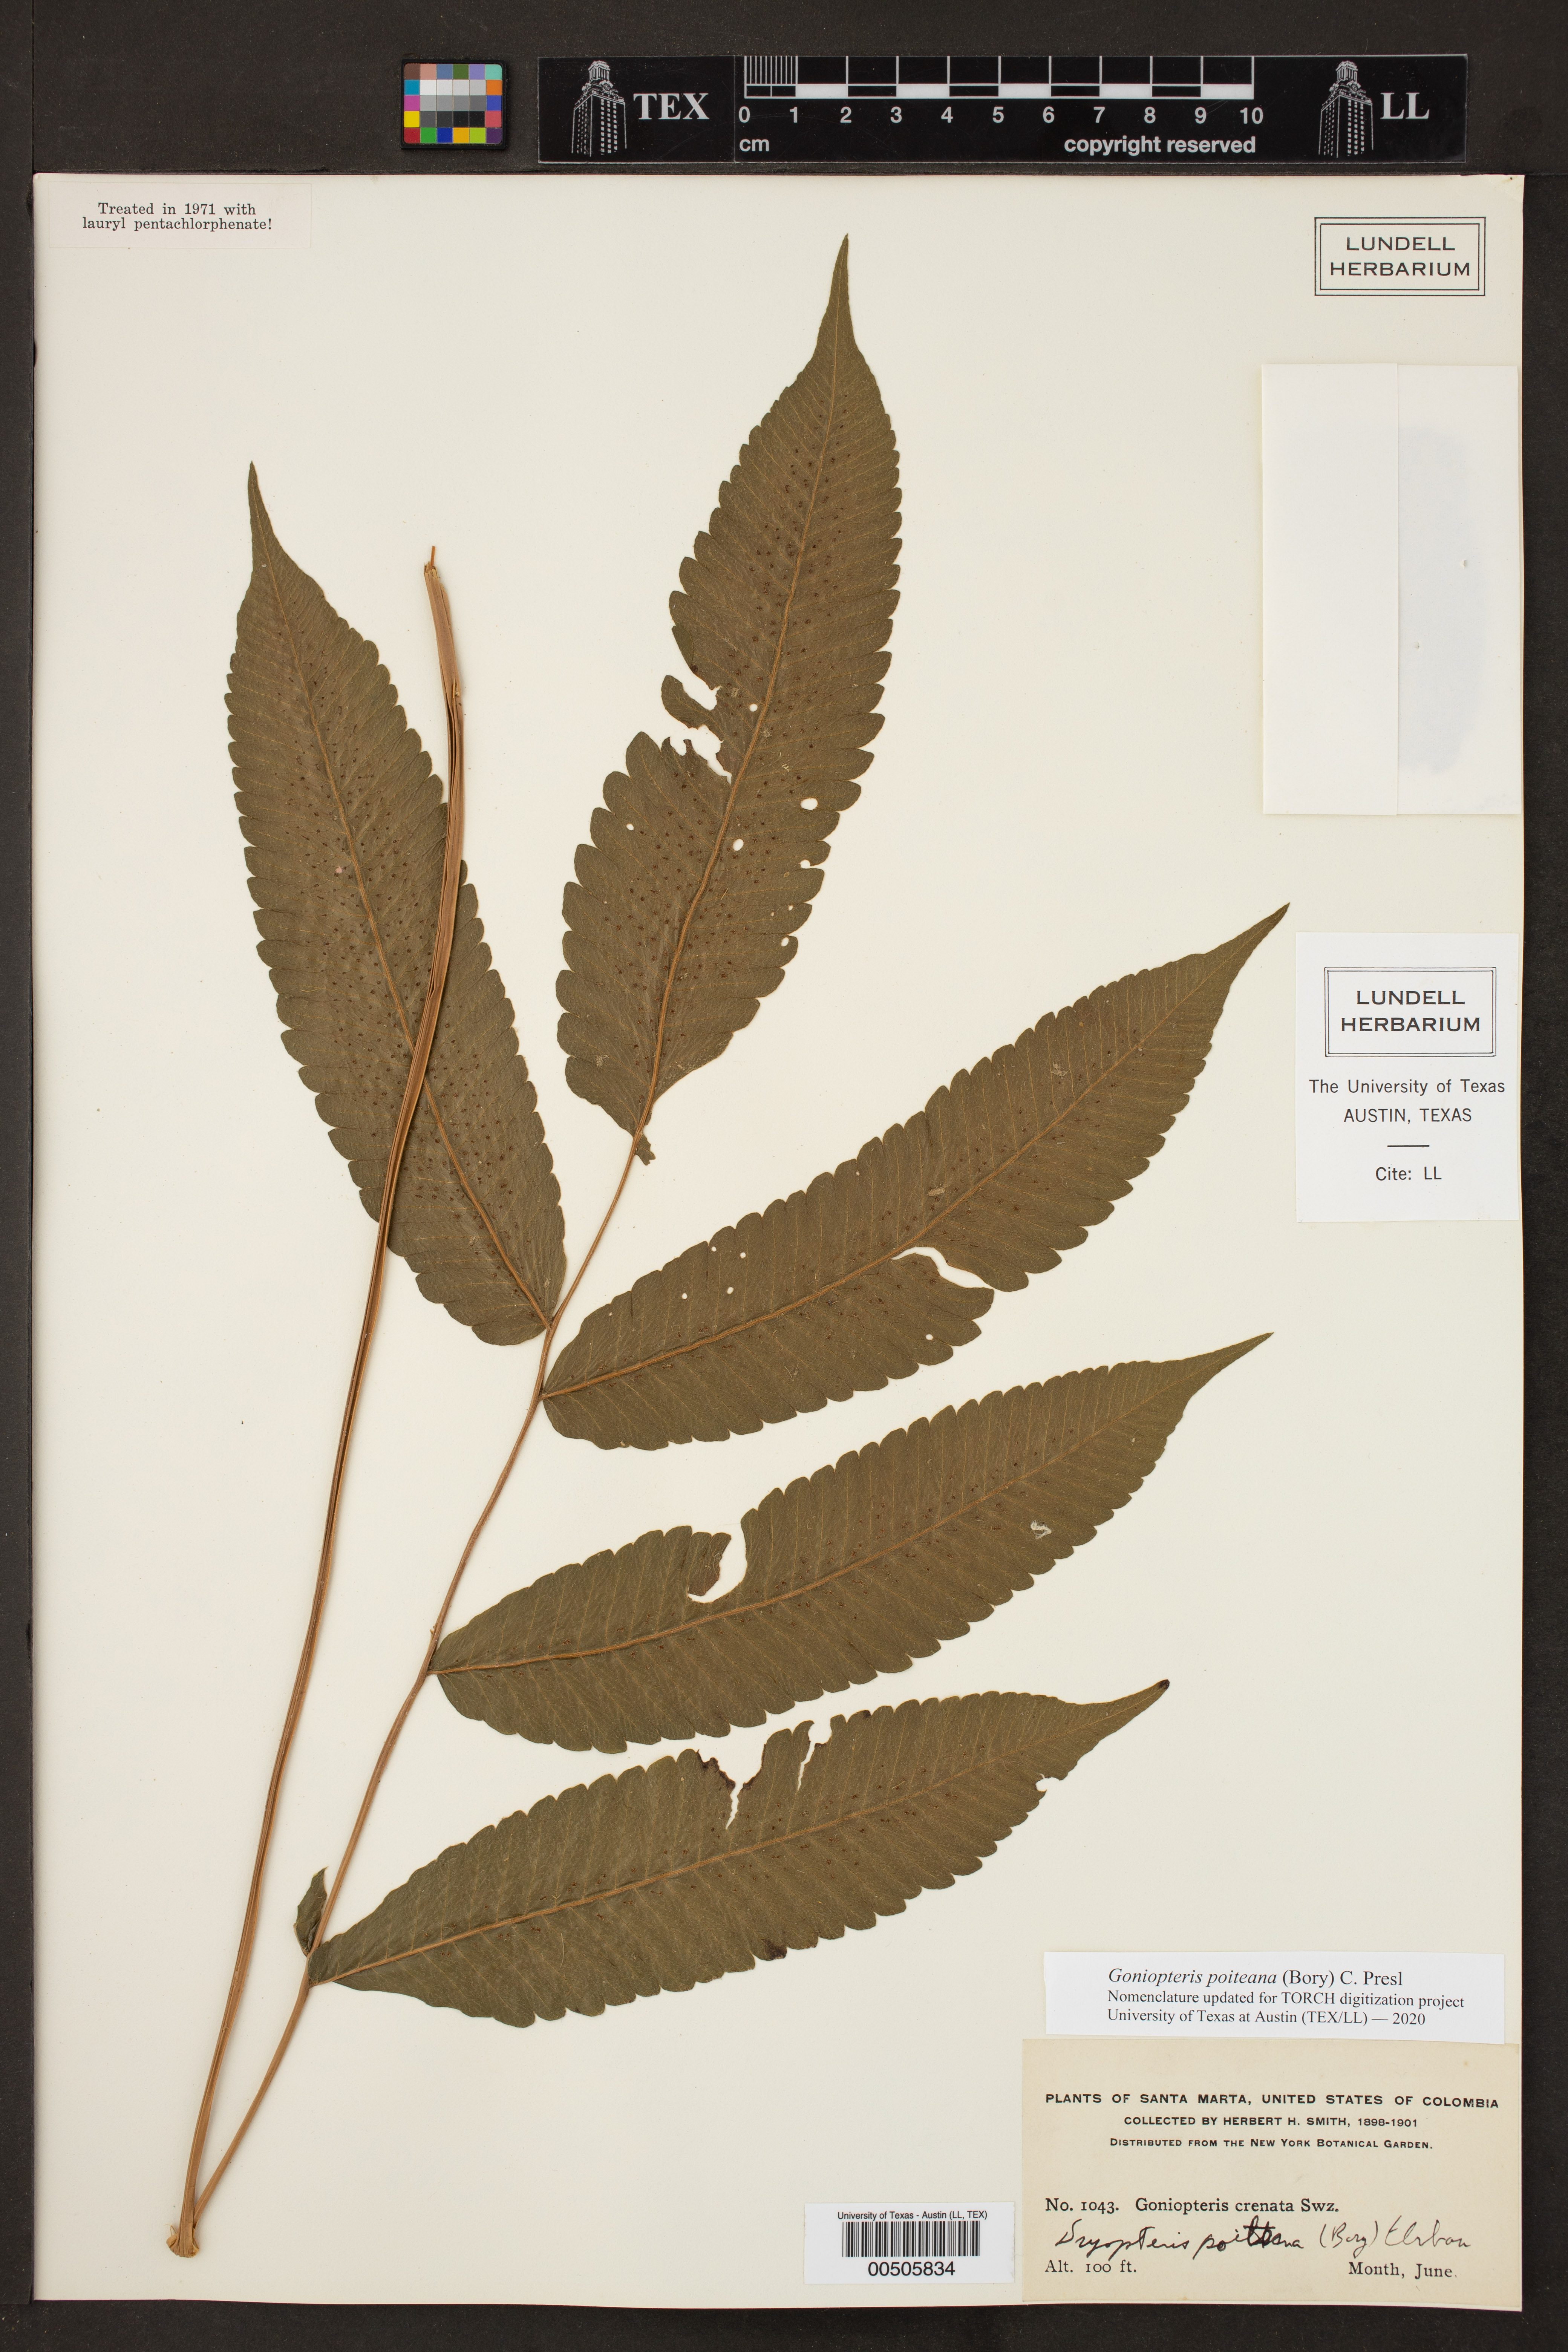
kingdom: Plantae
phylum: Tracheophyta
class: Polypodiopsida
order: Polypodiales
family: Thelypteridaceae
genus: Goniopteris
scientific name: Goniopteris poiteana
